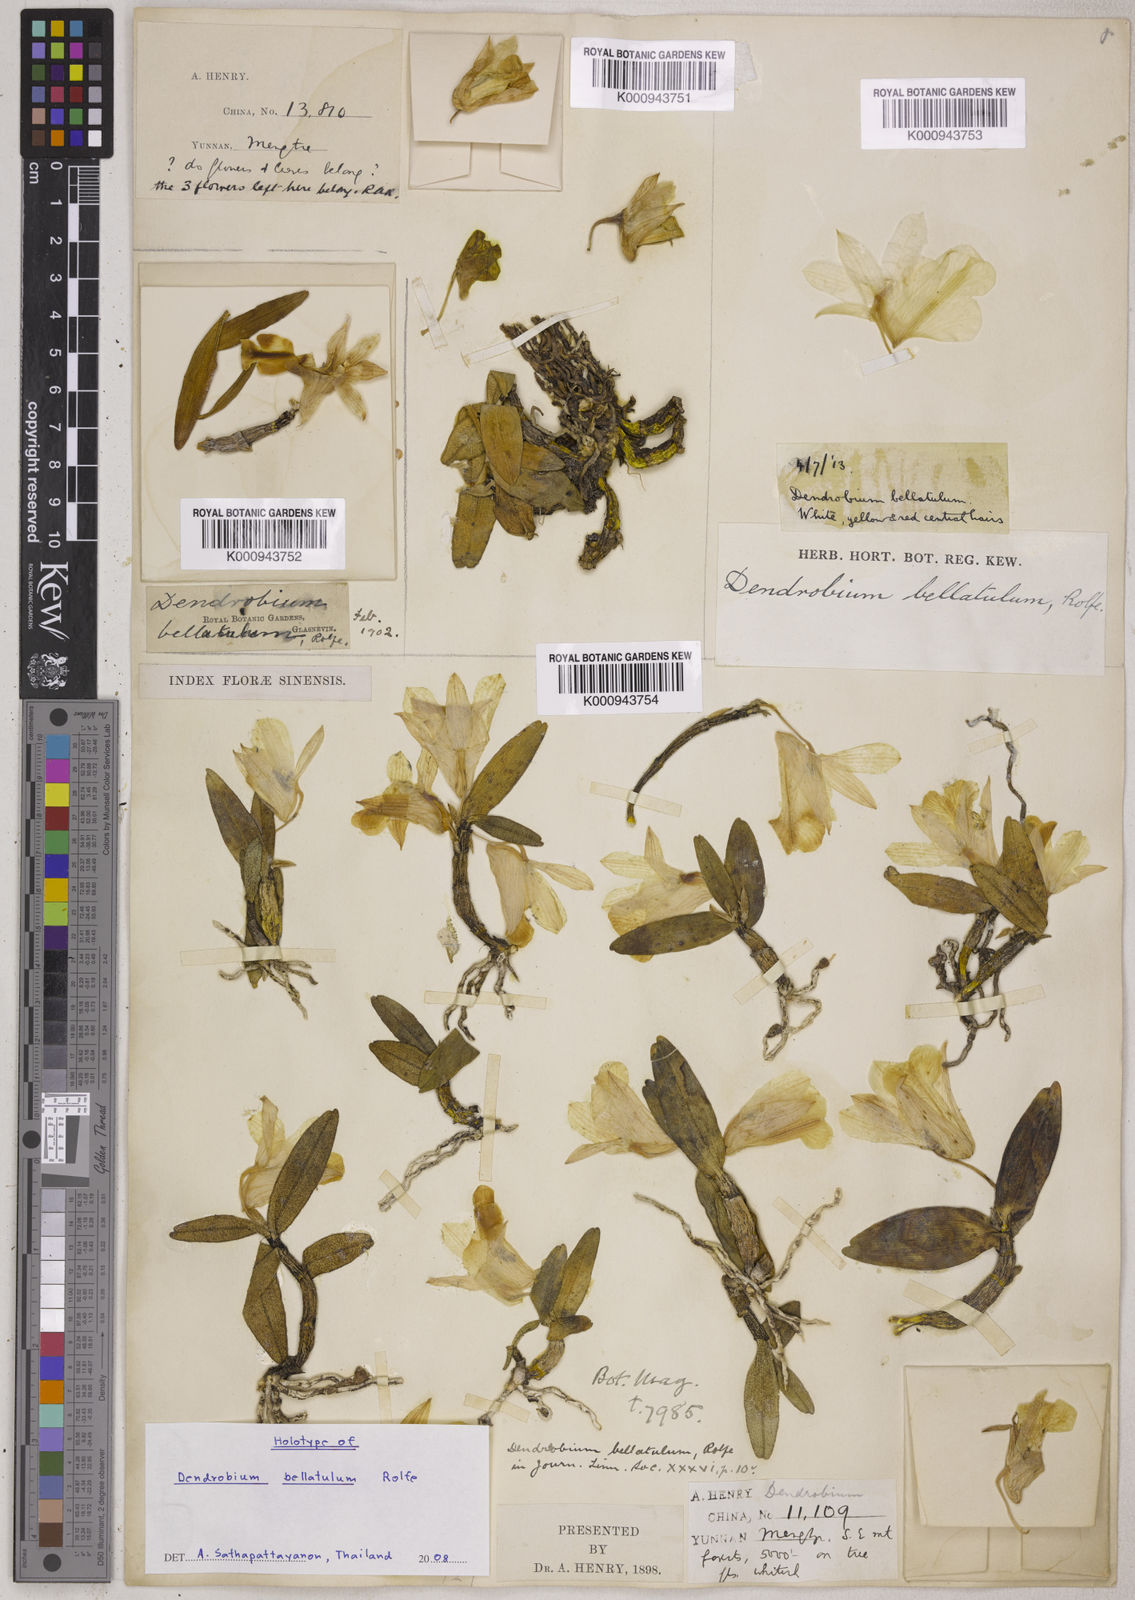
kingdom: Plantae
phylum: Tracheophyta
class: Liliopsida
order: Asparagales
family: Orchidaceae
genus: Dendrobium
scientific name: Dendrobium bellatulum
